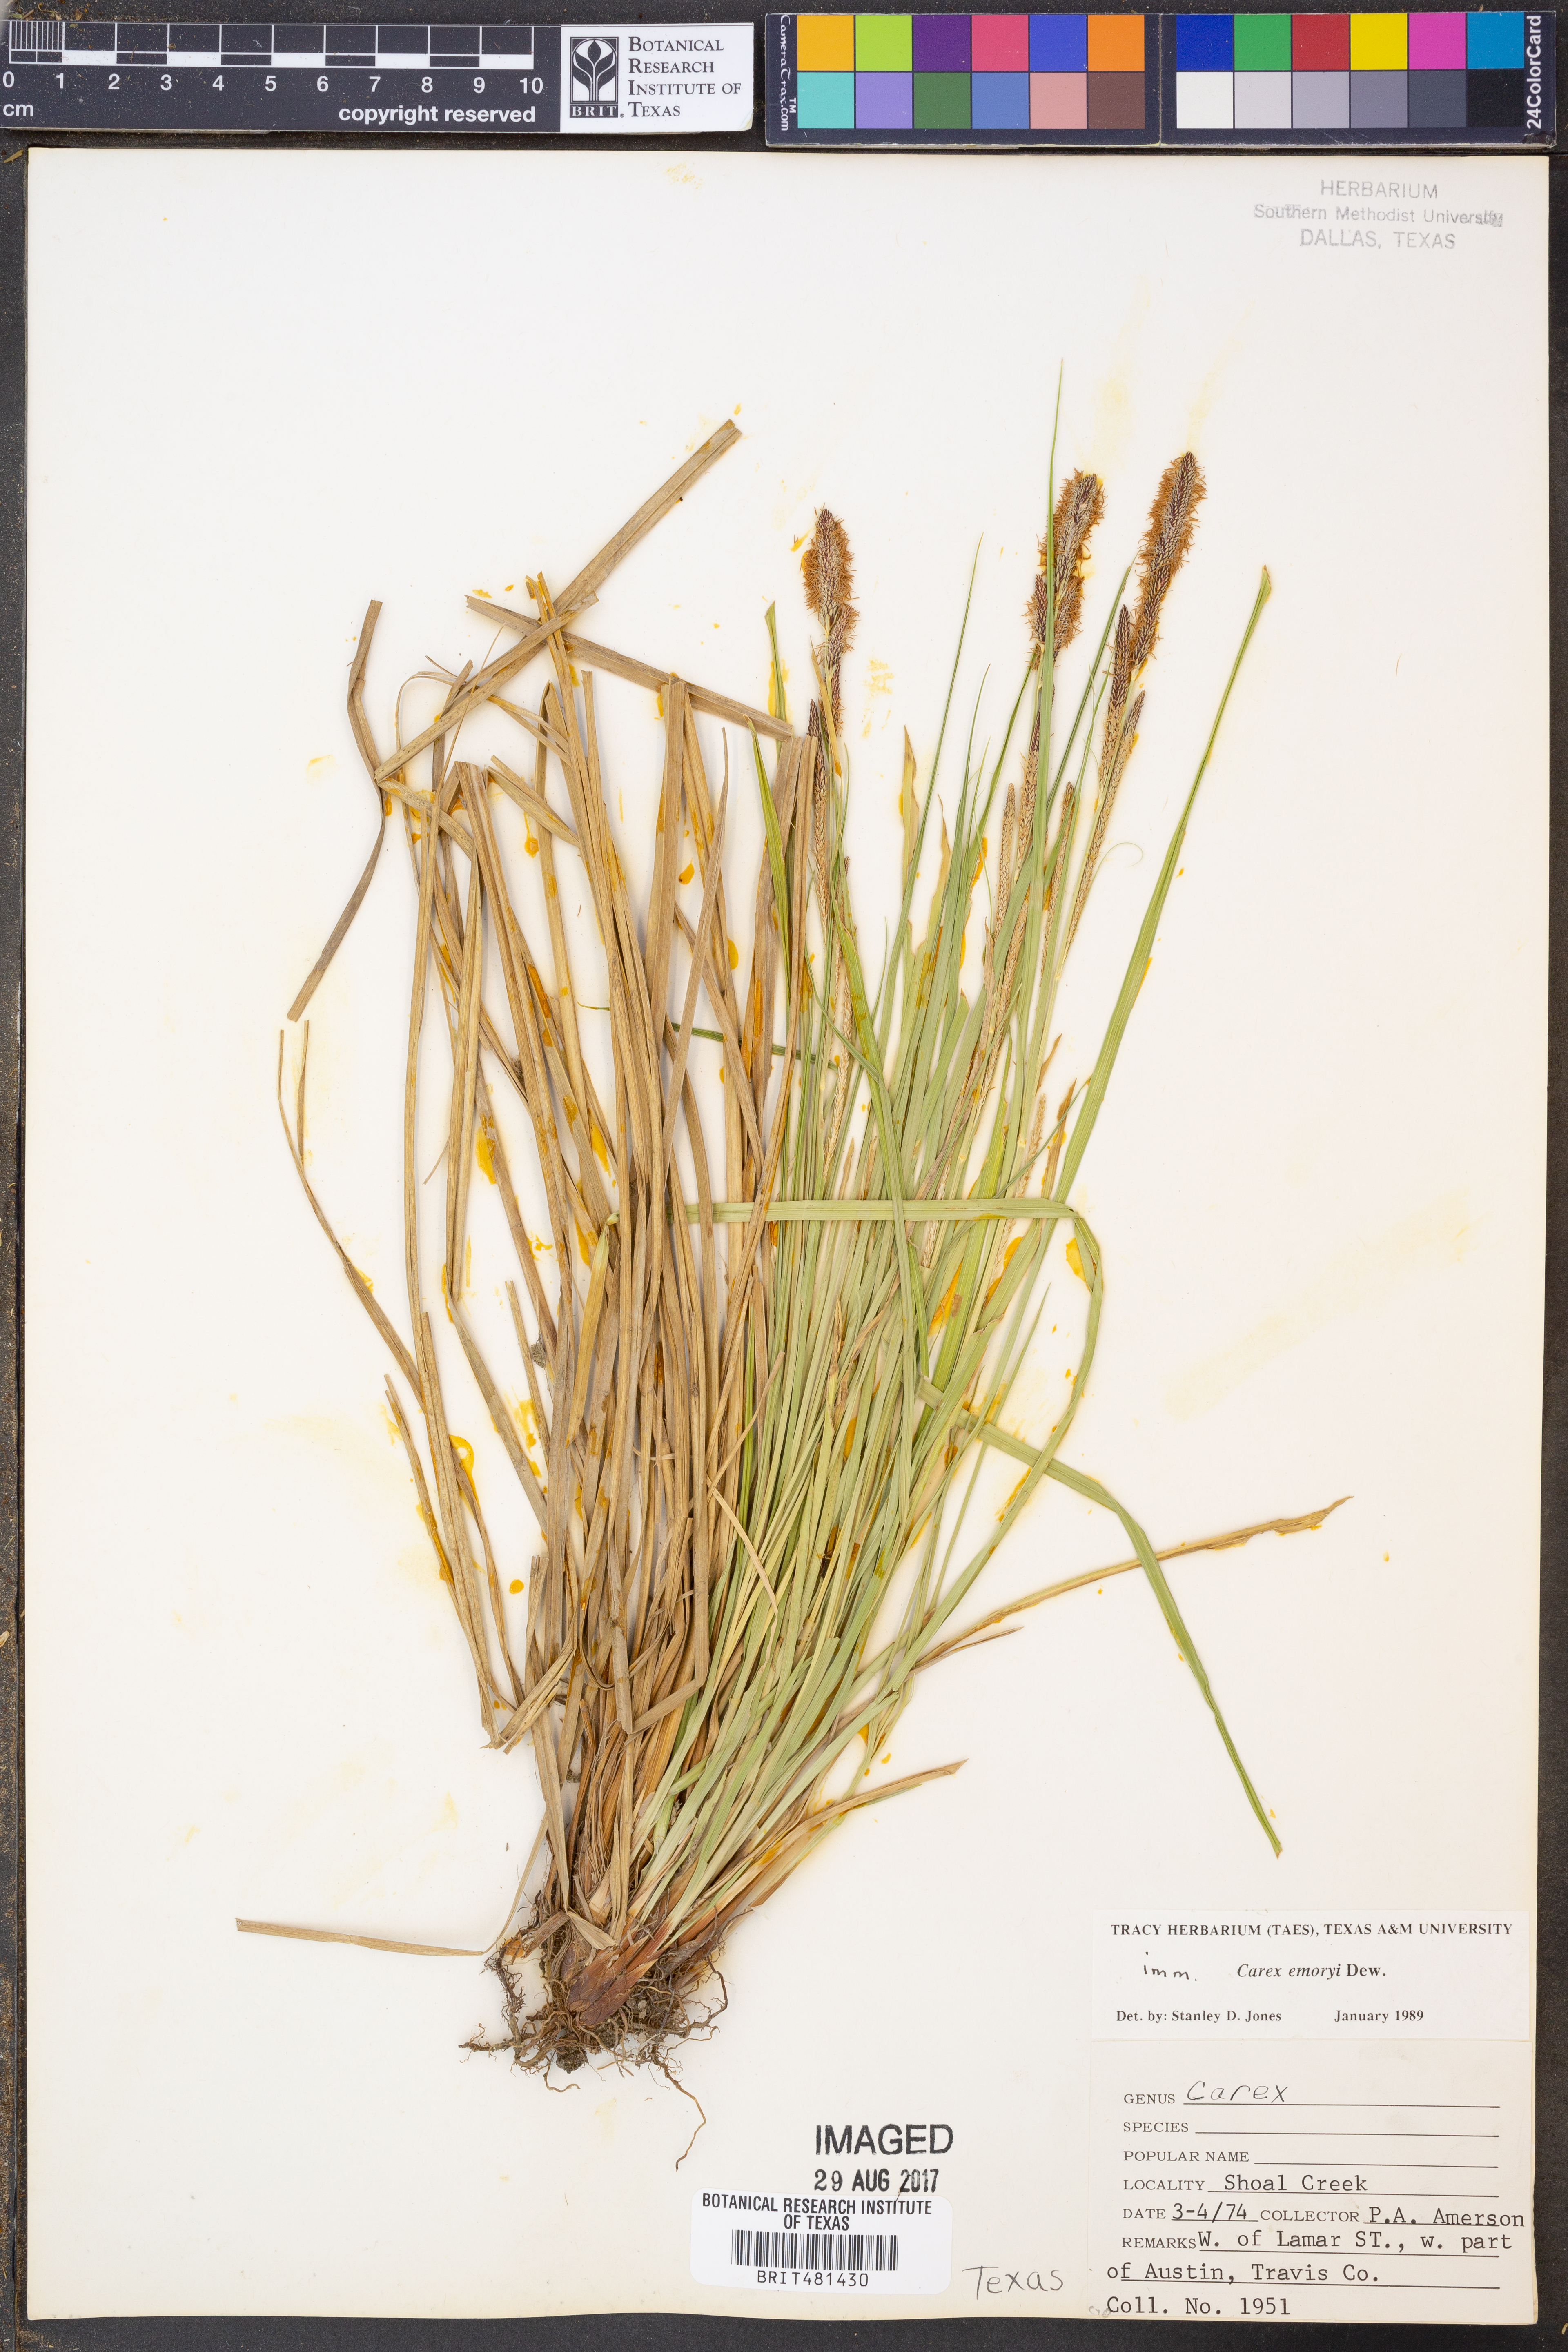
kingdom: Plantae
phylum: Tracheophyta
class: Liliopsida
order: Poales
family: Cyperaceae
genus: Carex
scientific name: Carex emoryi
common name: Emory's sedge
